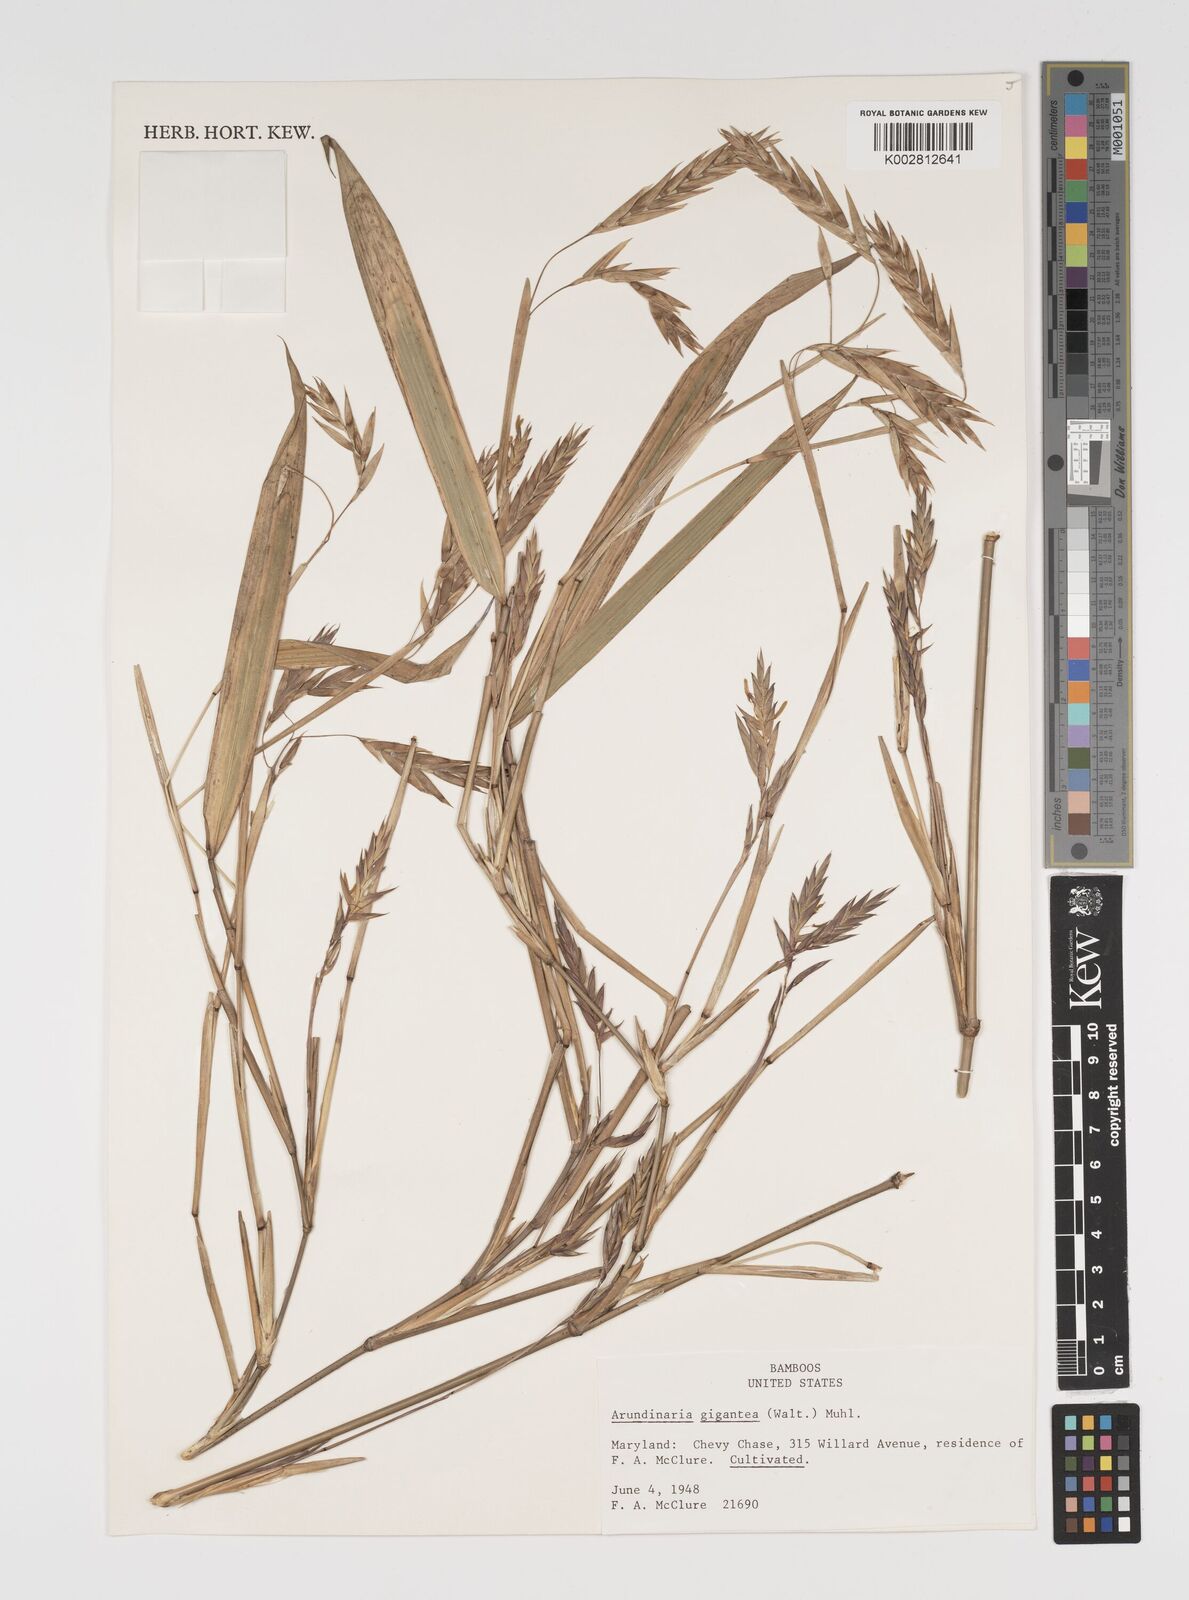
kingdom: Plantae
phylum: Tracheophyta
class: Liliopsida
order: Poales
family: Poaceae
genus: Arundinaria
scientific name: Arundinaria
